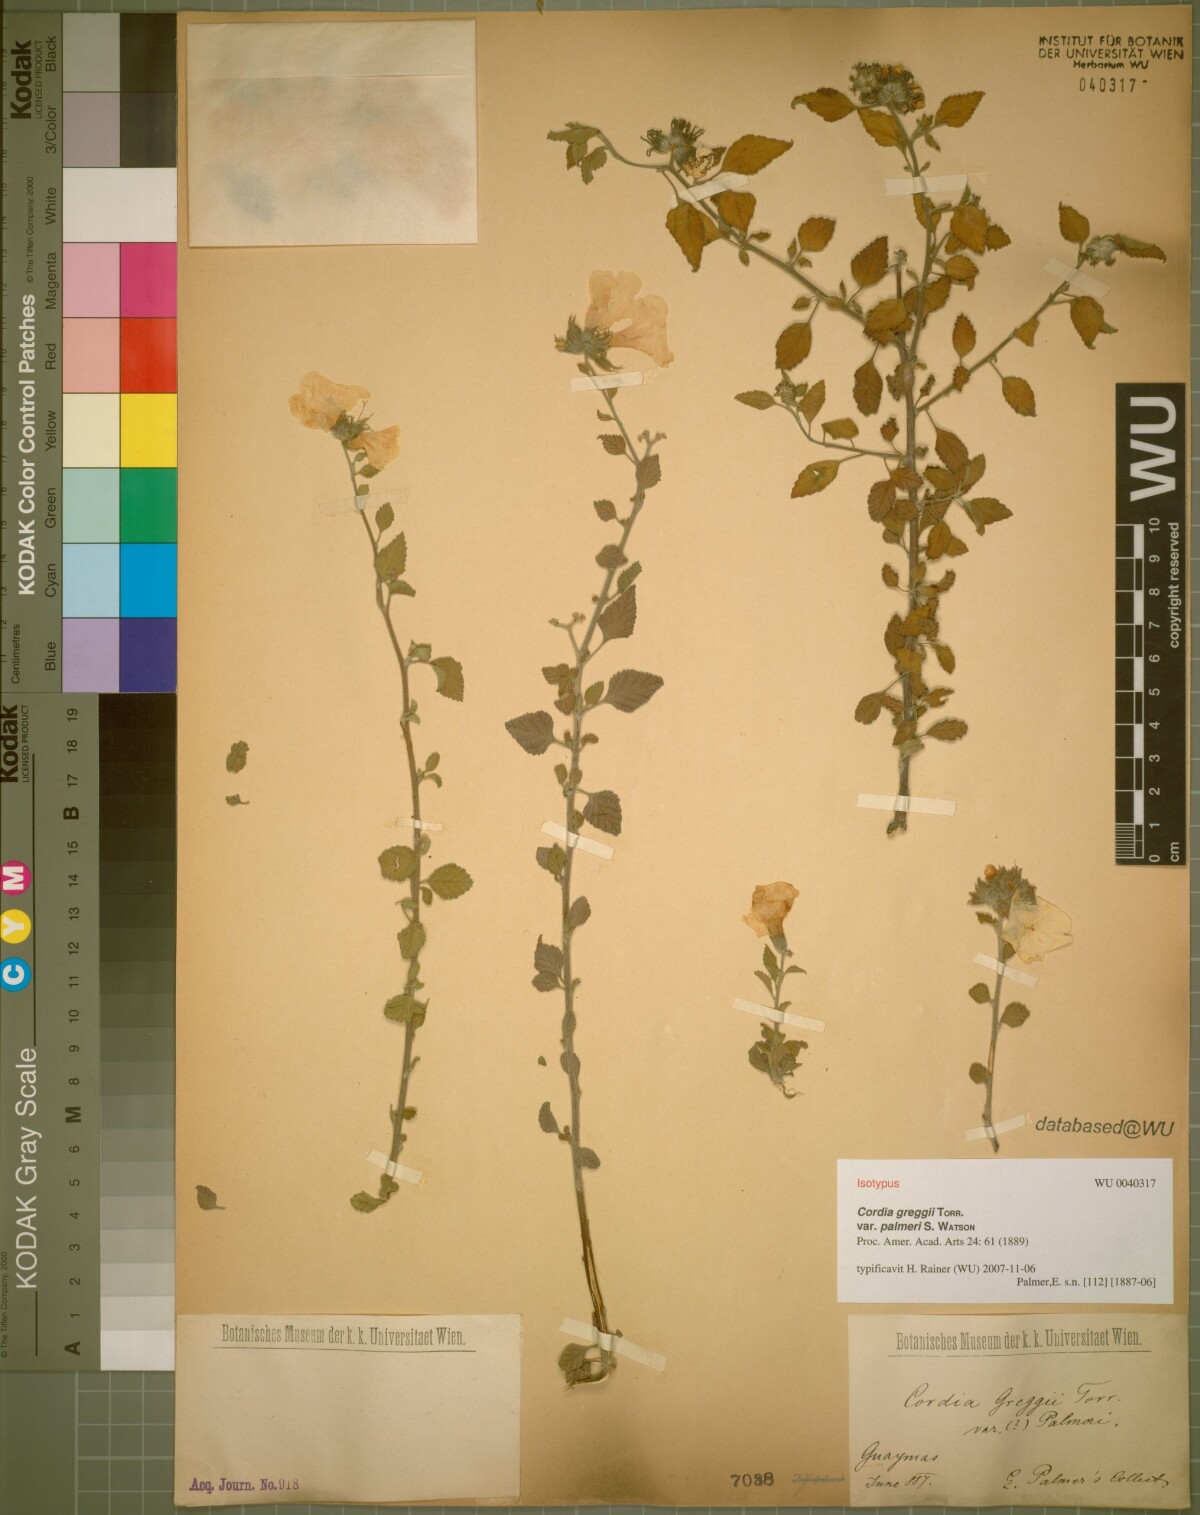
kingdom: Plantae
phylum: Tracheophyta
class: Magnoliopsida
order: Boraginales
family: Cordiaceae
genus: Cordia
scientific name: Cordia parvifolia
